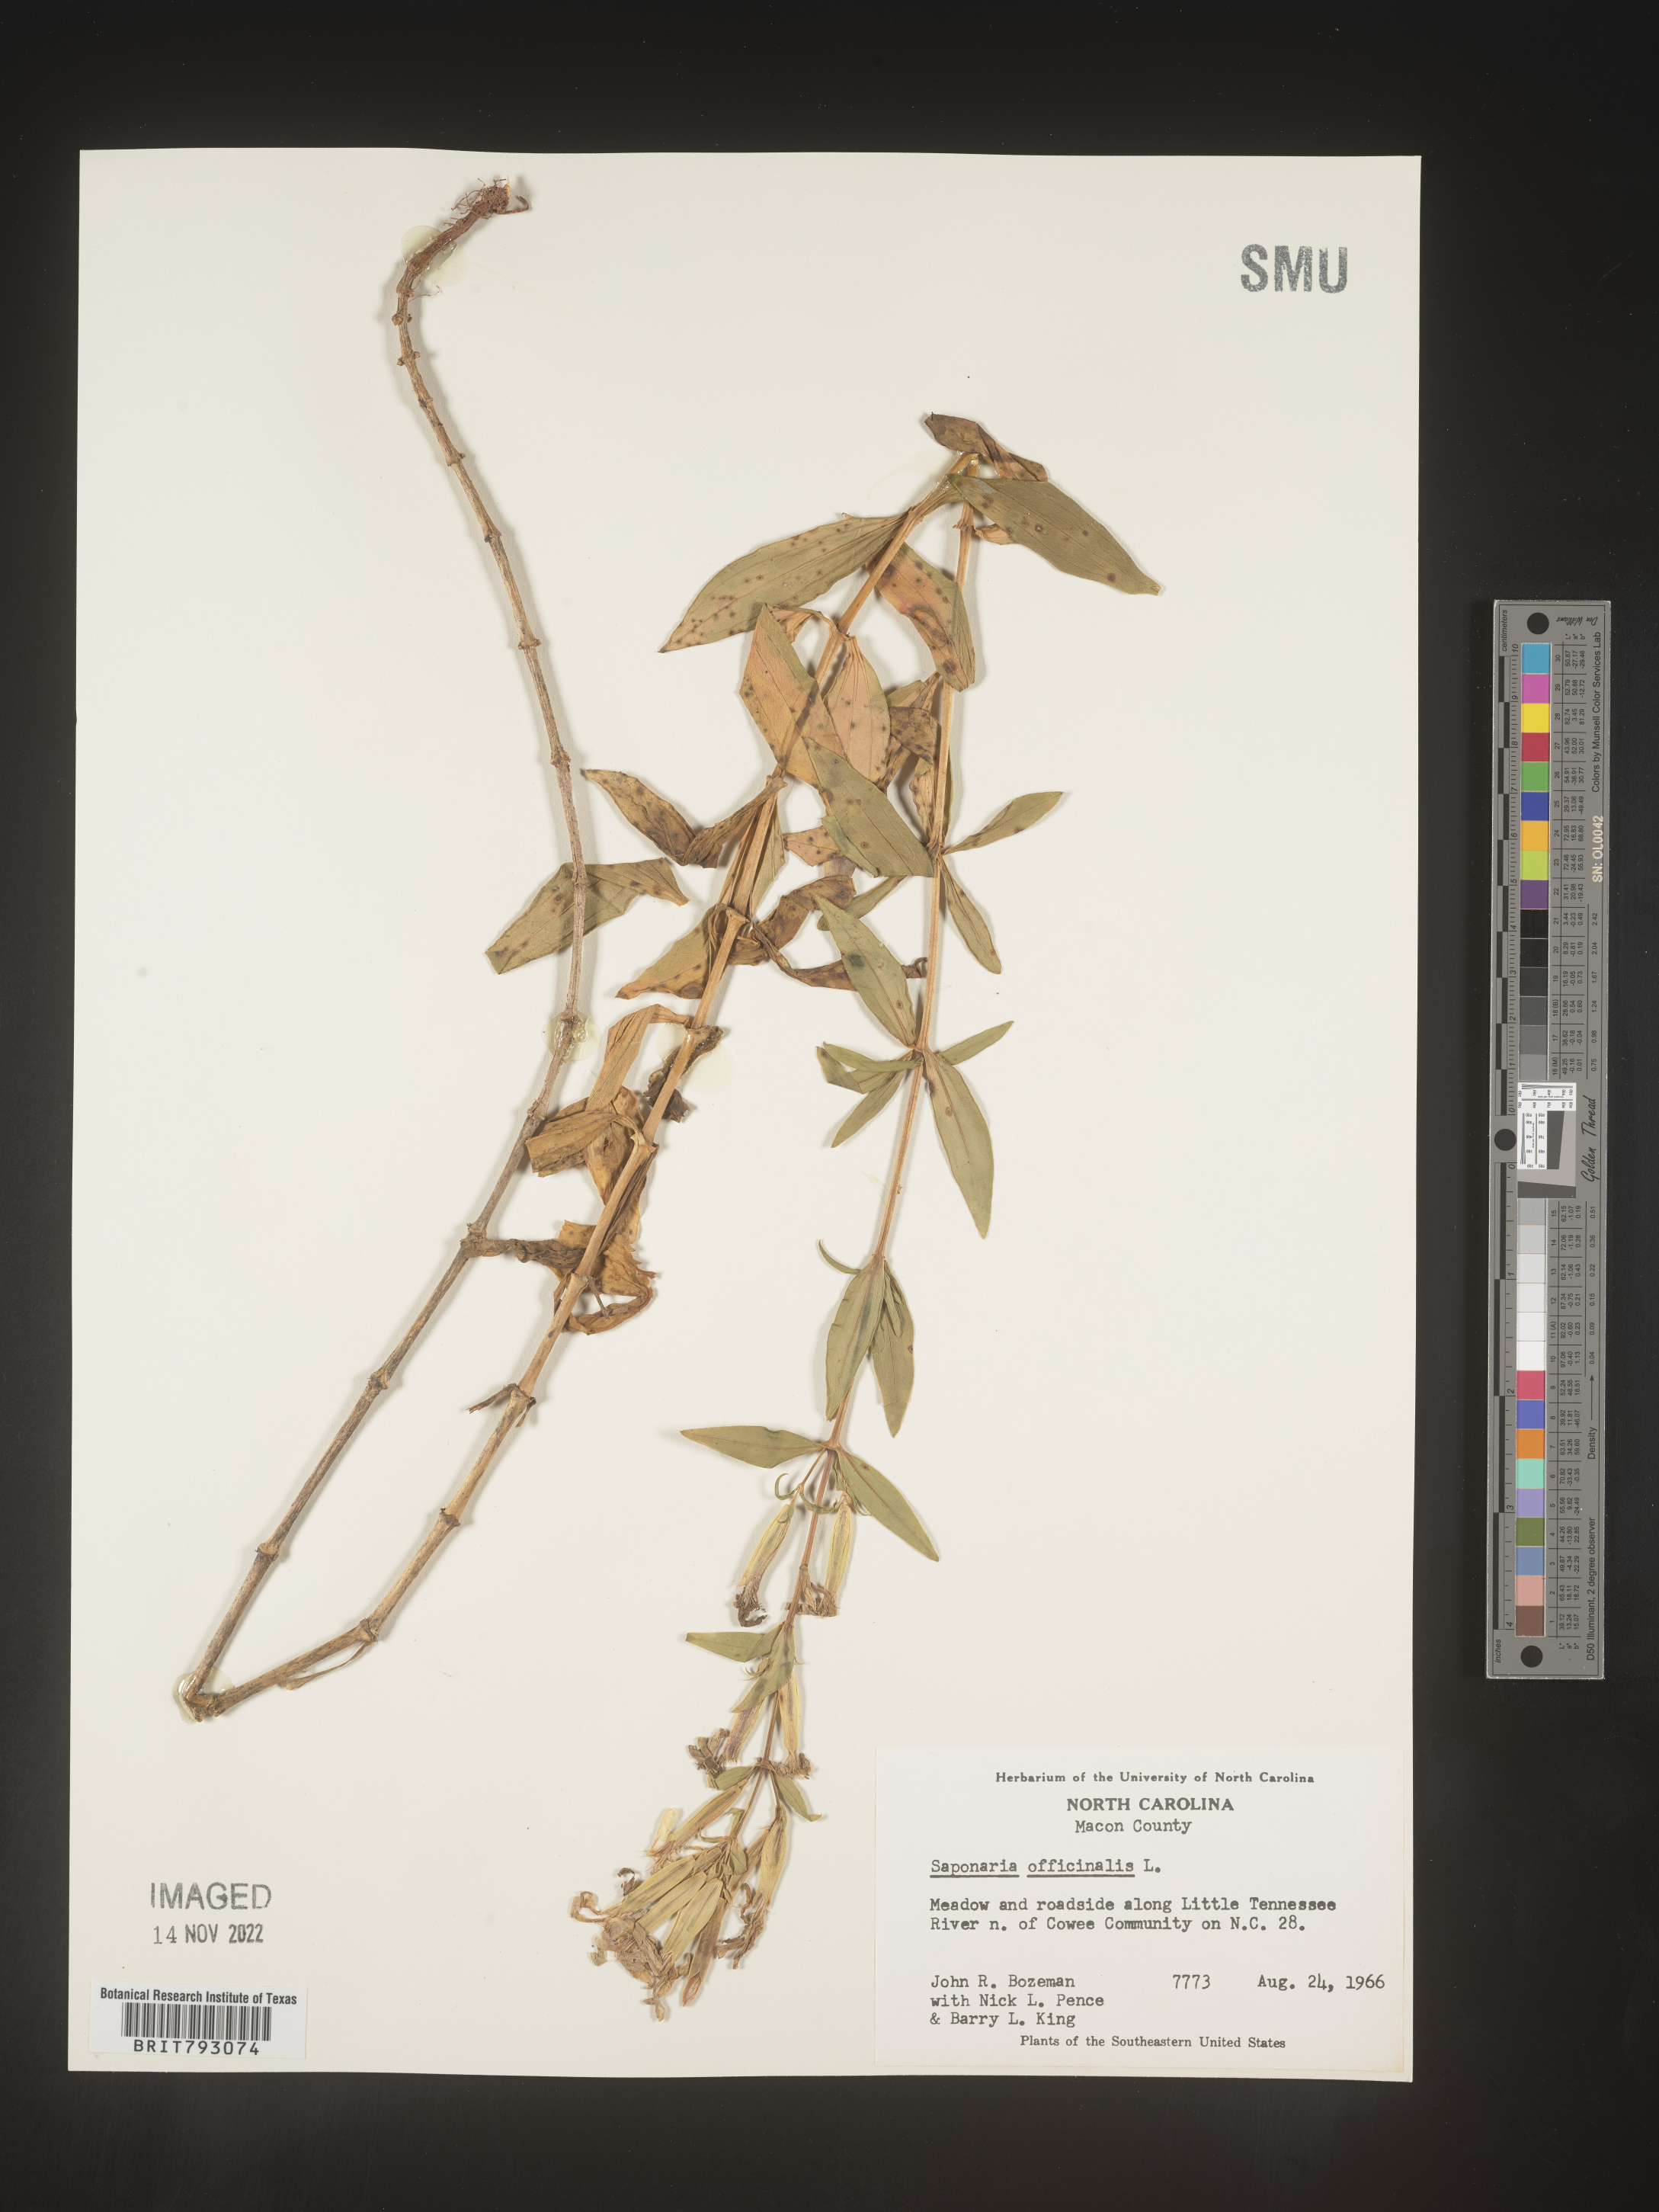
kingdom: Plantae
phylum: Tracheophyta
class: Magnoliopsida
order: Caryophyllales
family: Caryophyllaceae
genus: Saponaria
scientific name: Saponaria officinalis
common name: Soapwort
